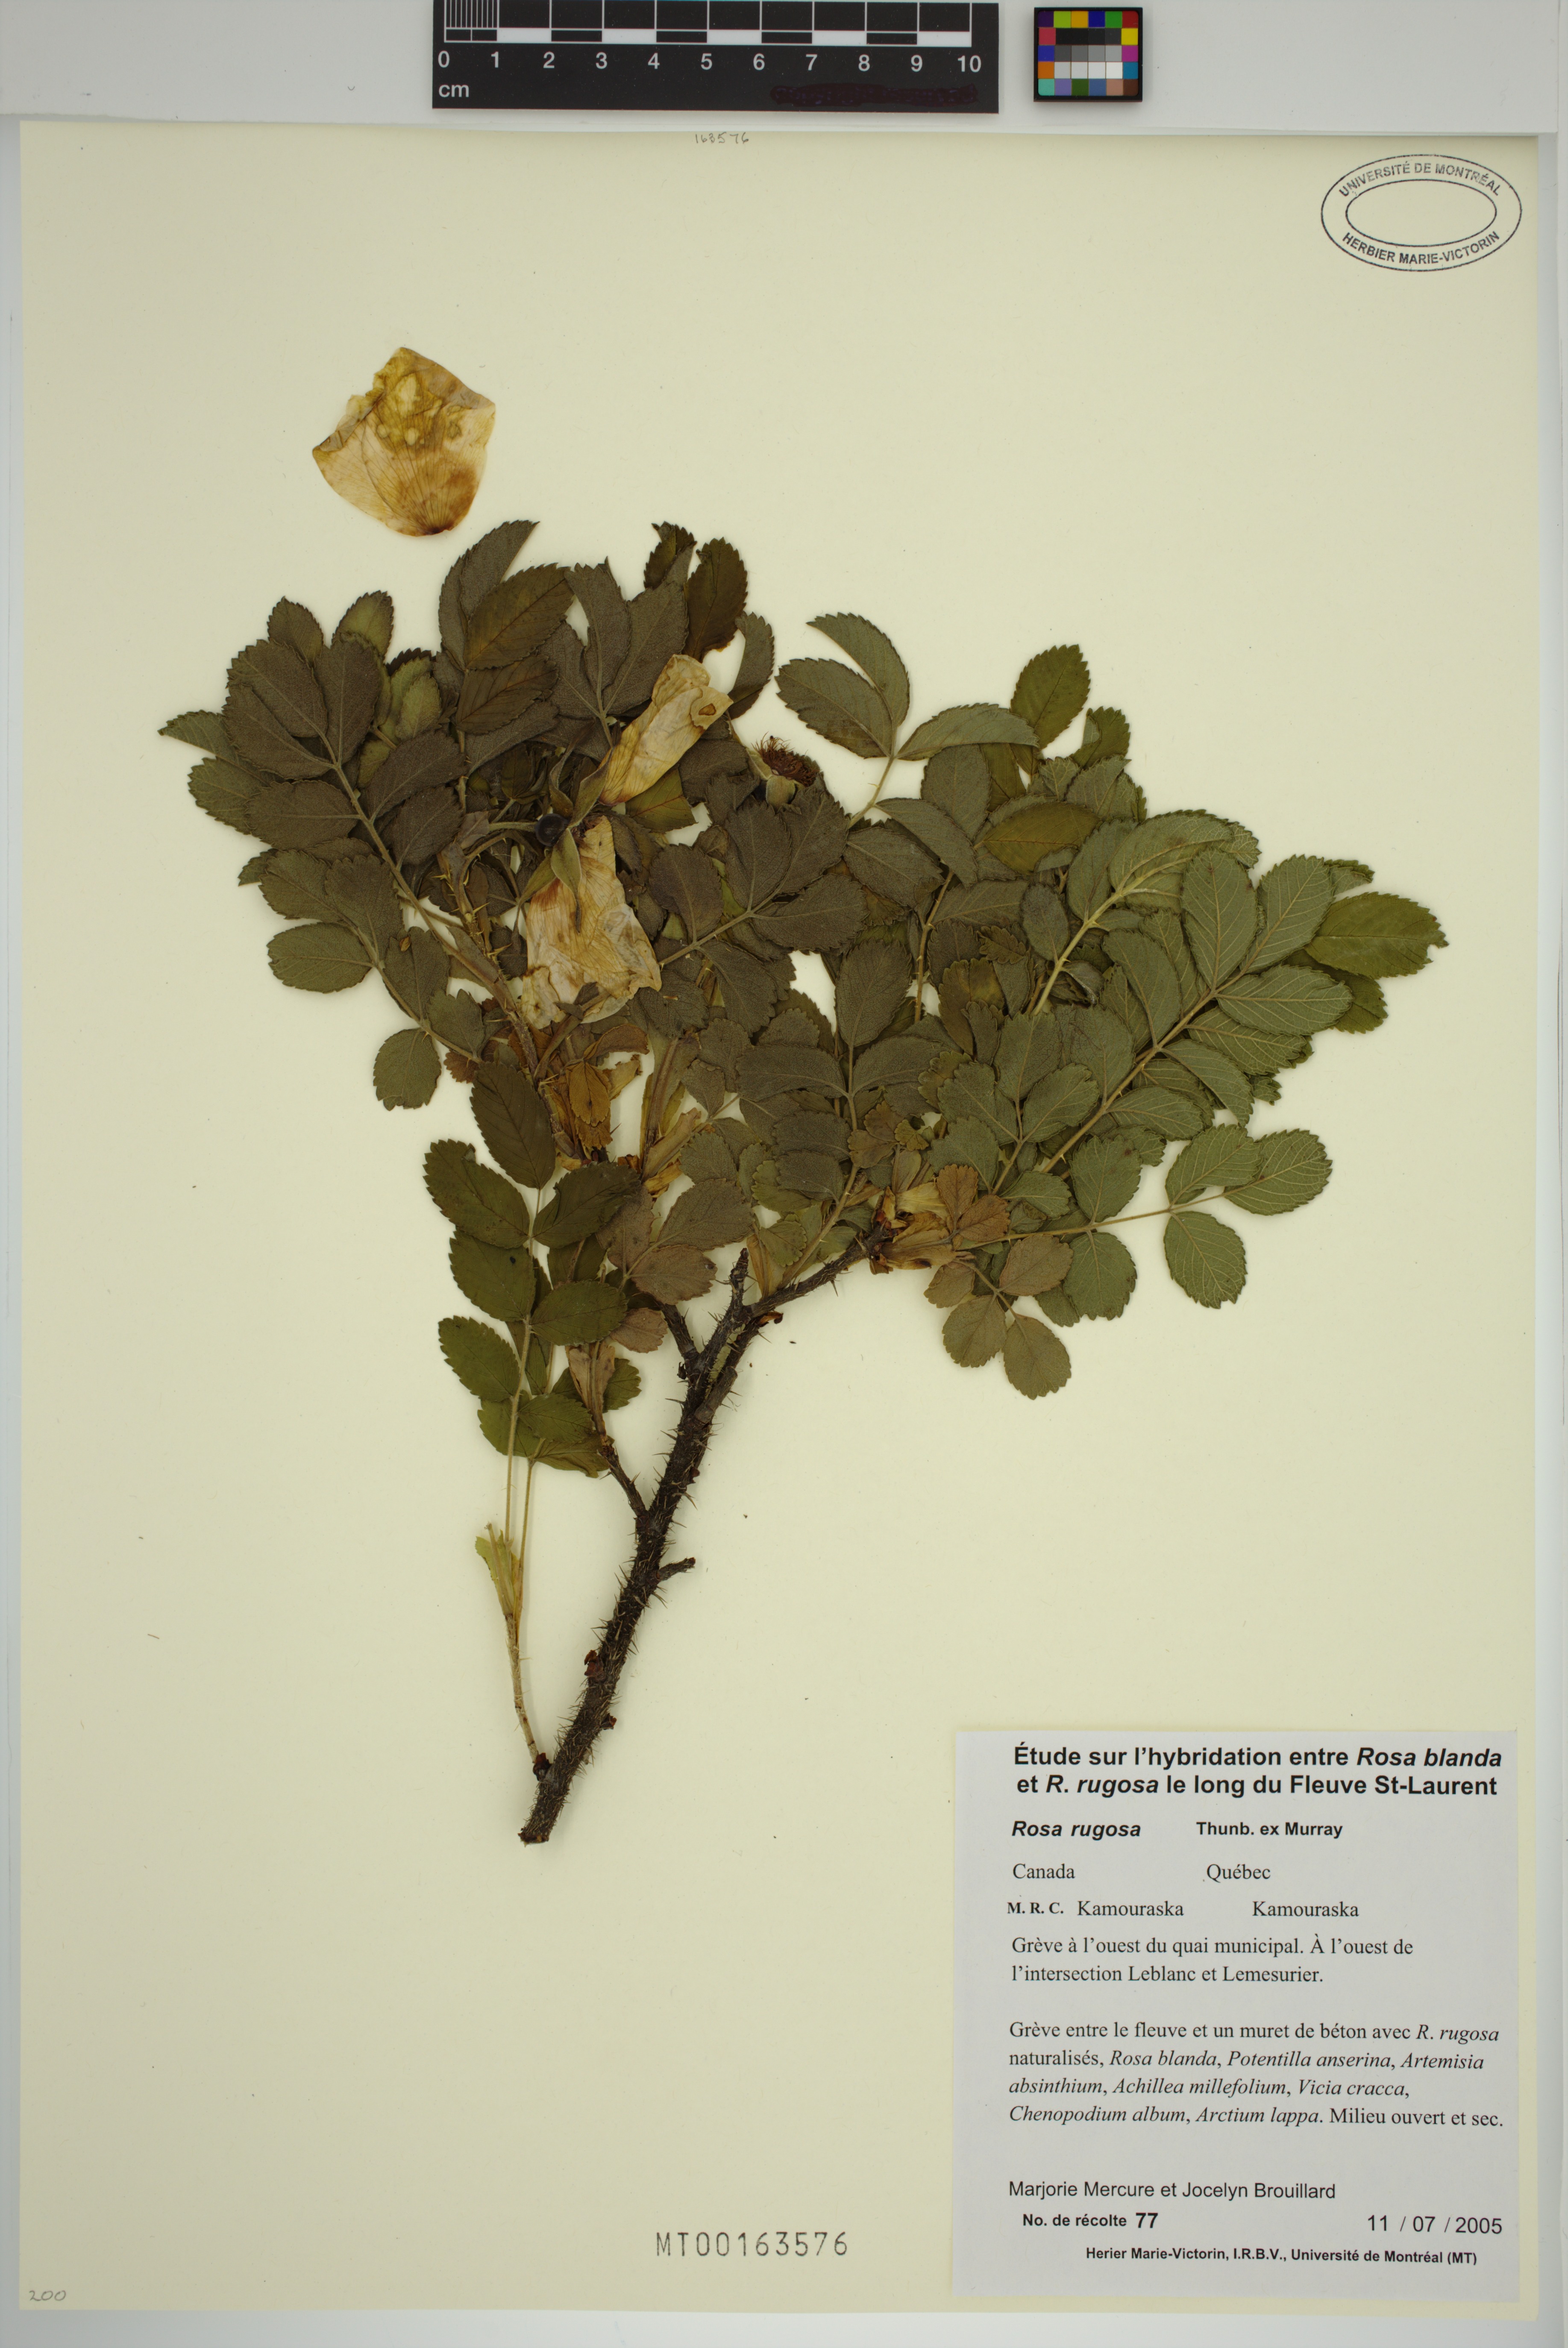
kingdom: Plantae
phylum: Tracheophyta
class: Magnoliopsida
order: Rosales
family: Rosaceae
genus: Rosa
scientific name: Rosa rugosa
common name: Japanese rose
